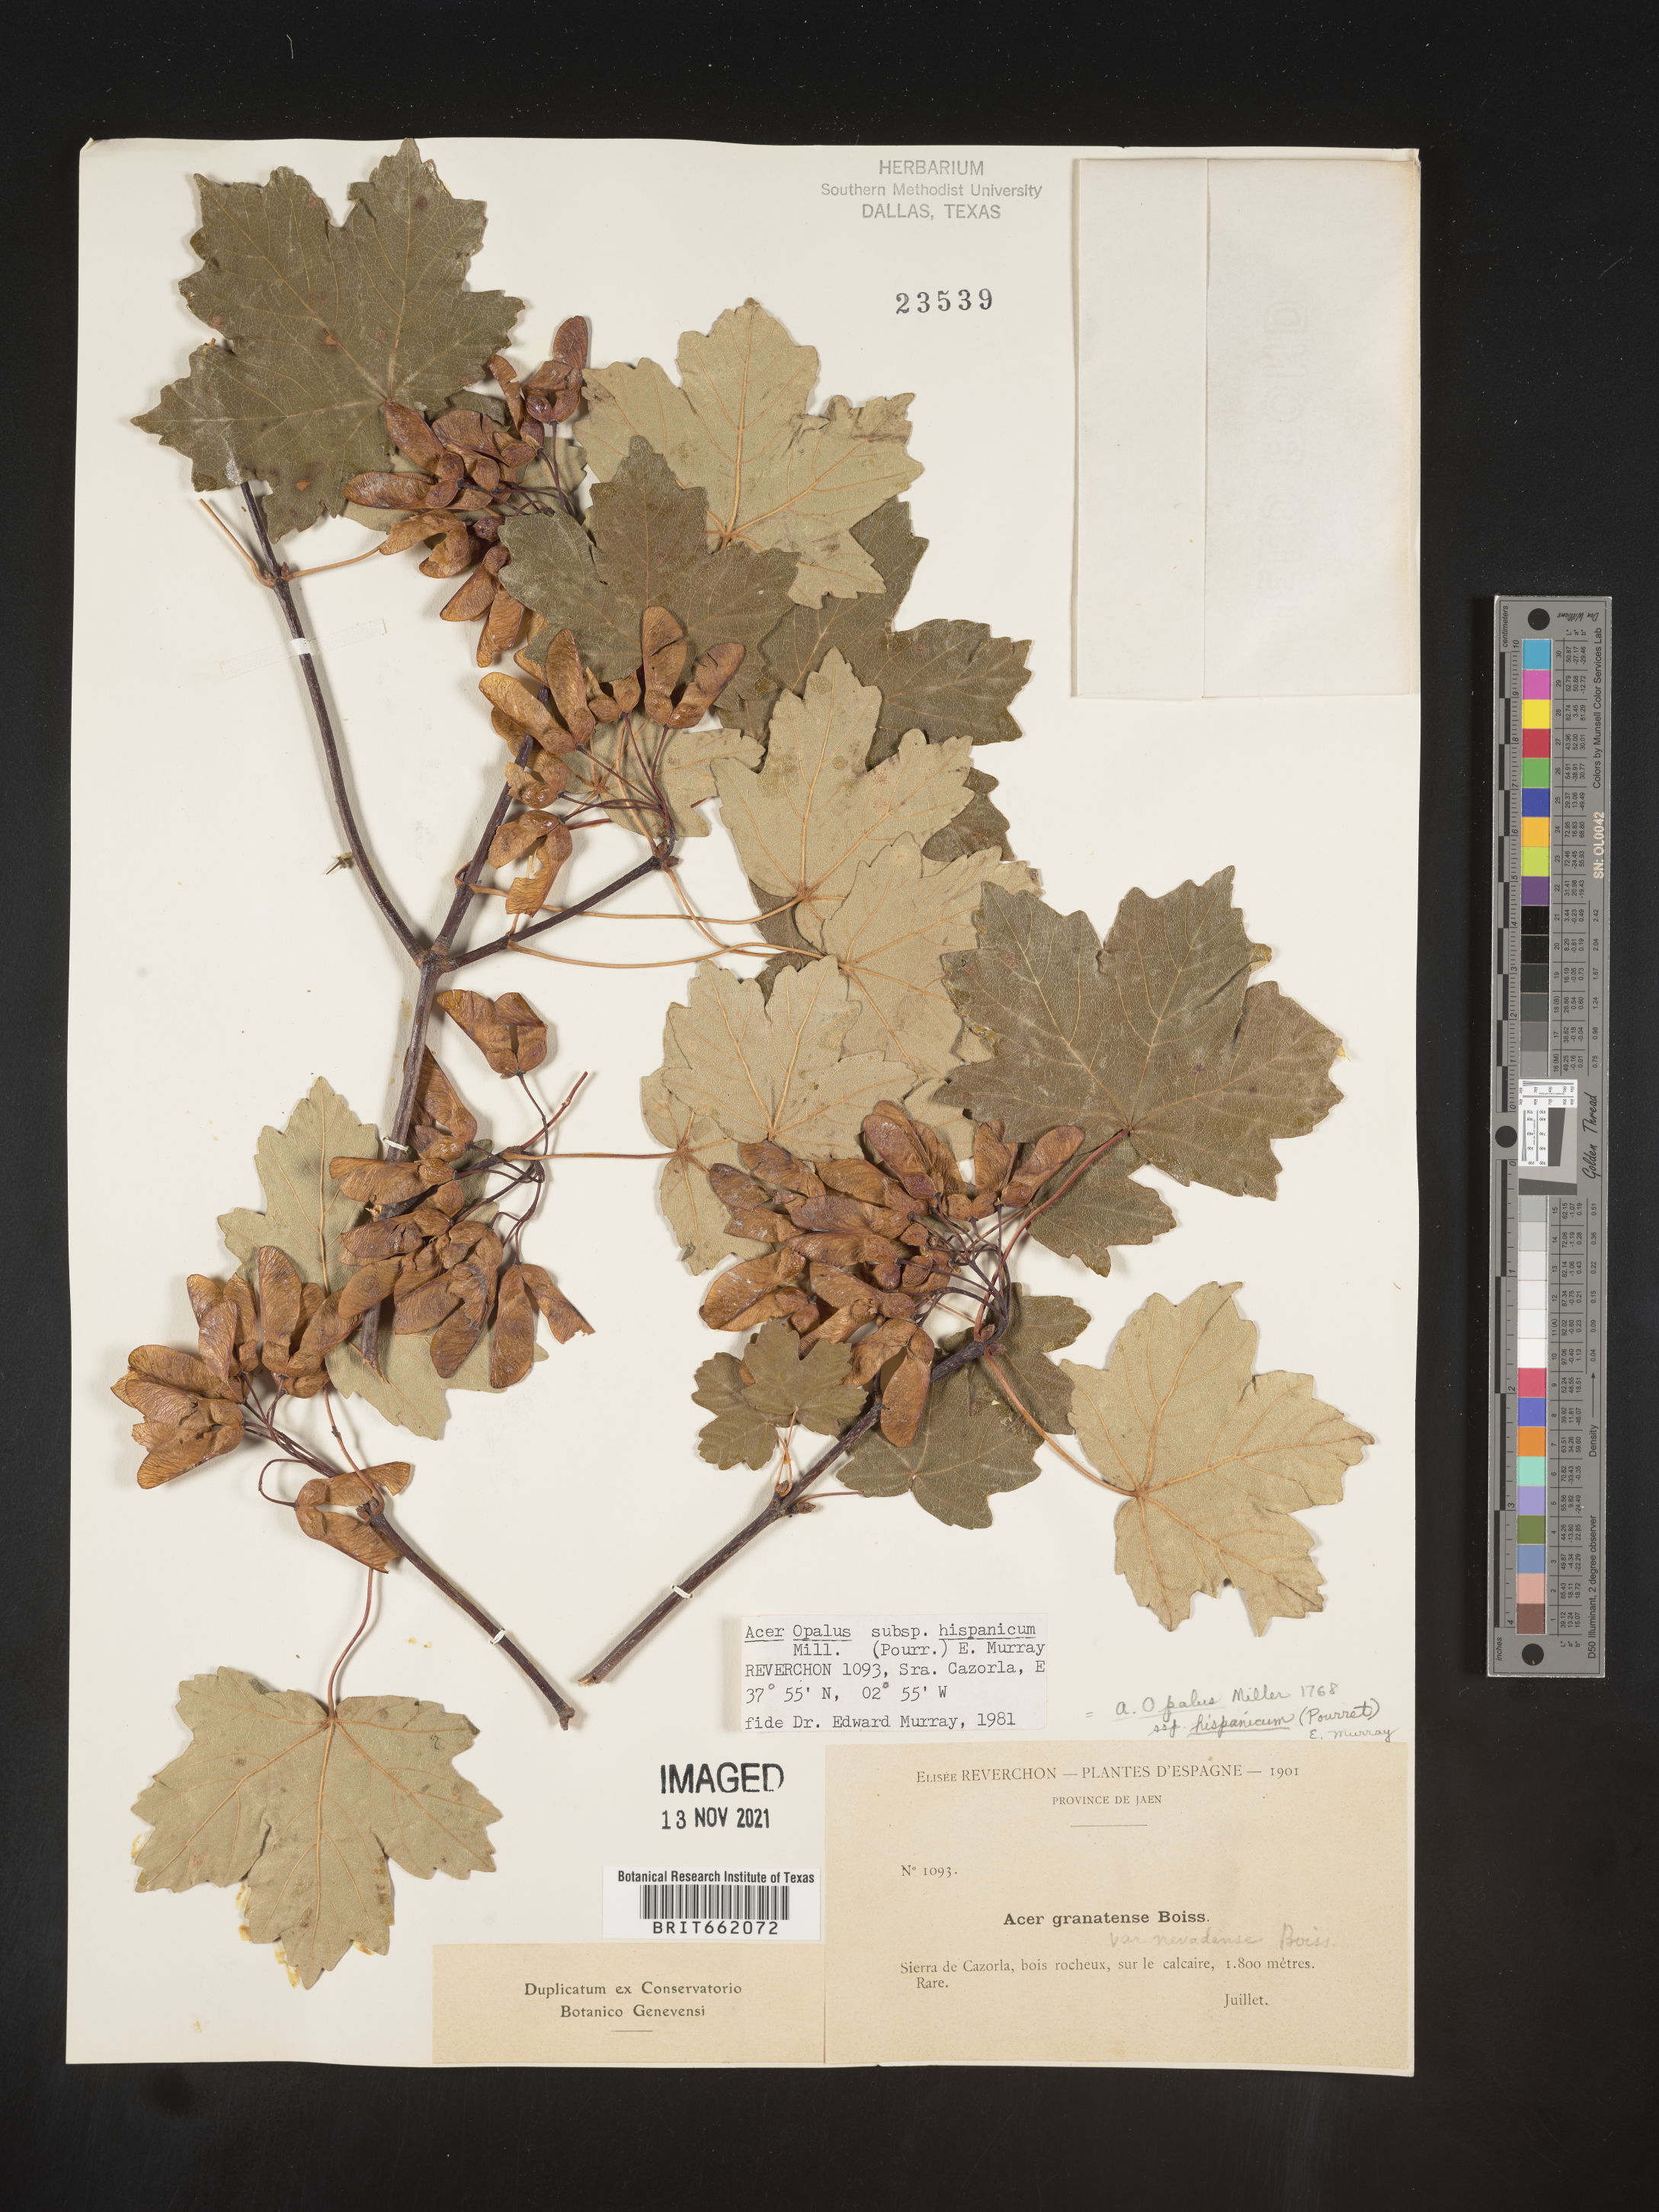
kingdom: Plantae
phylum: Tracheophyta
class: Magnoliopsida
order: Sapindales
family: Sapindaceae
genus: Acer
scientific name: Acer
